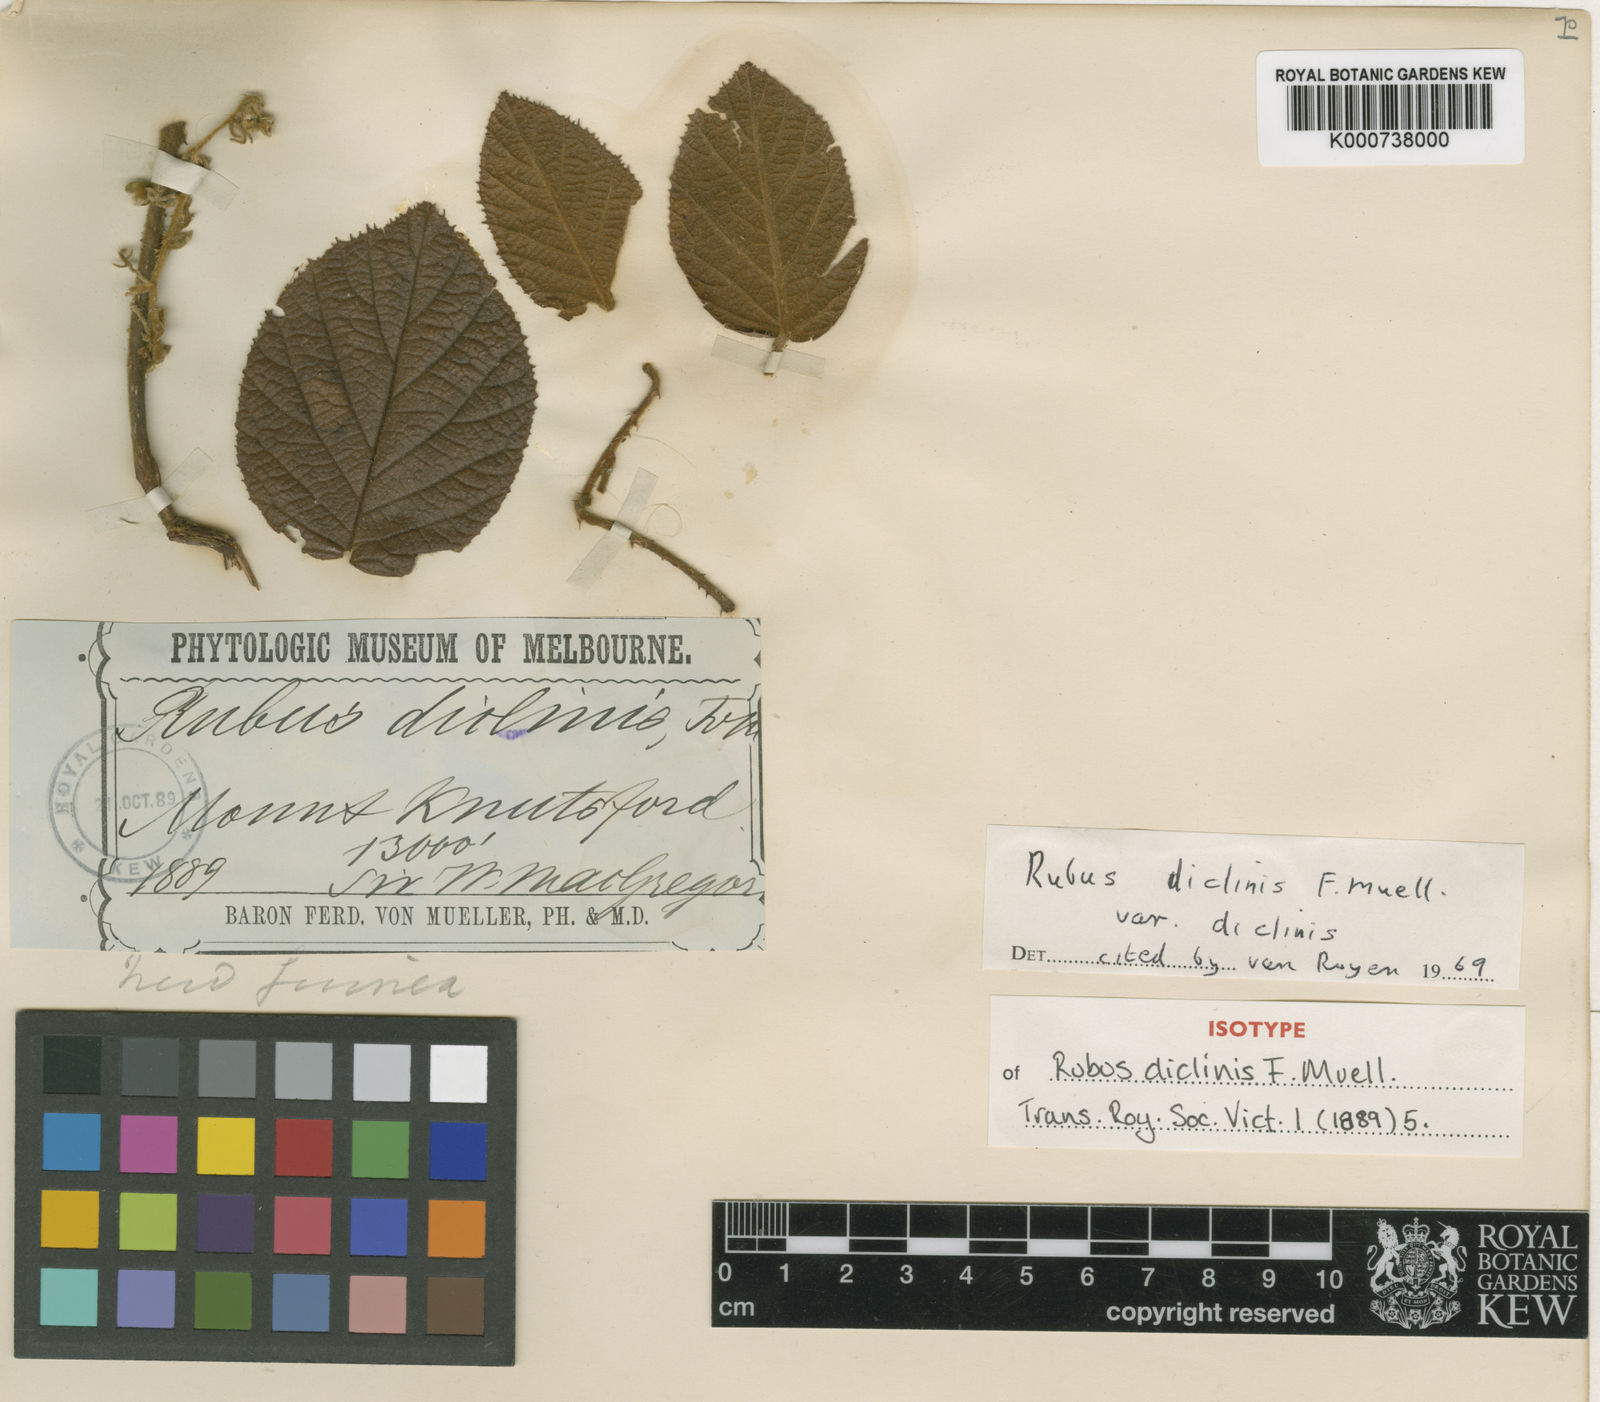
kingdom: Plantae
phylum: Tracheophyta
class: Magnoliopsida
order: Rosales
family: Rosaceae
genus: Rubus
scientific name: Rubus diclinis
